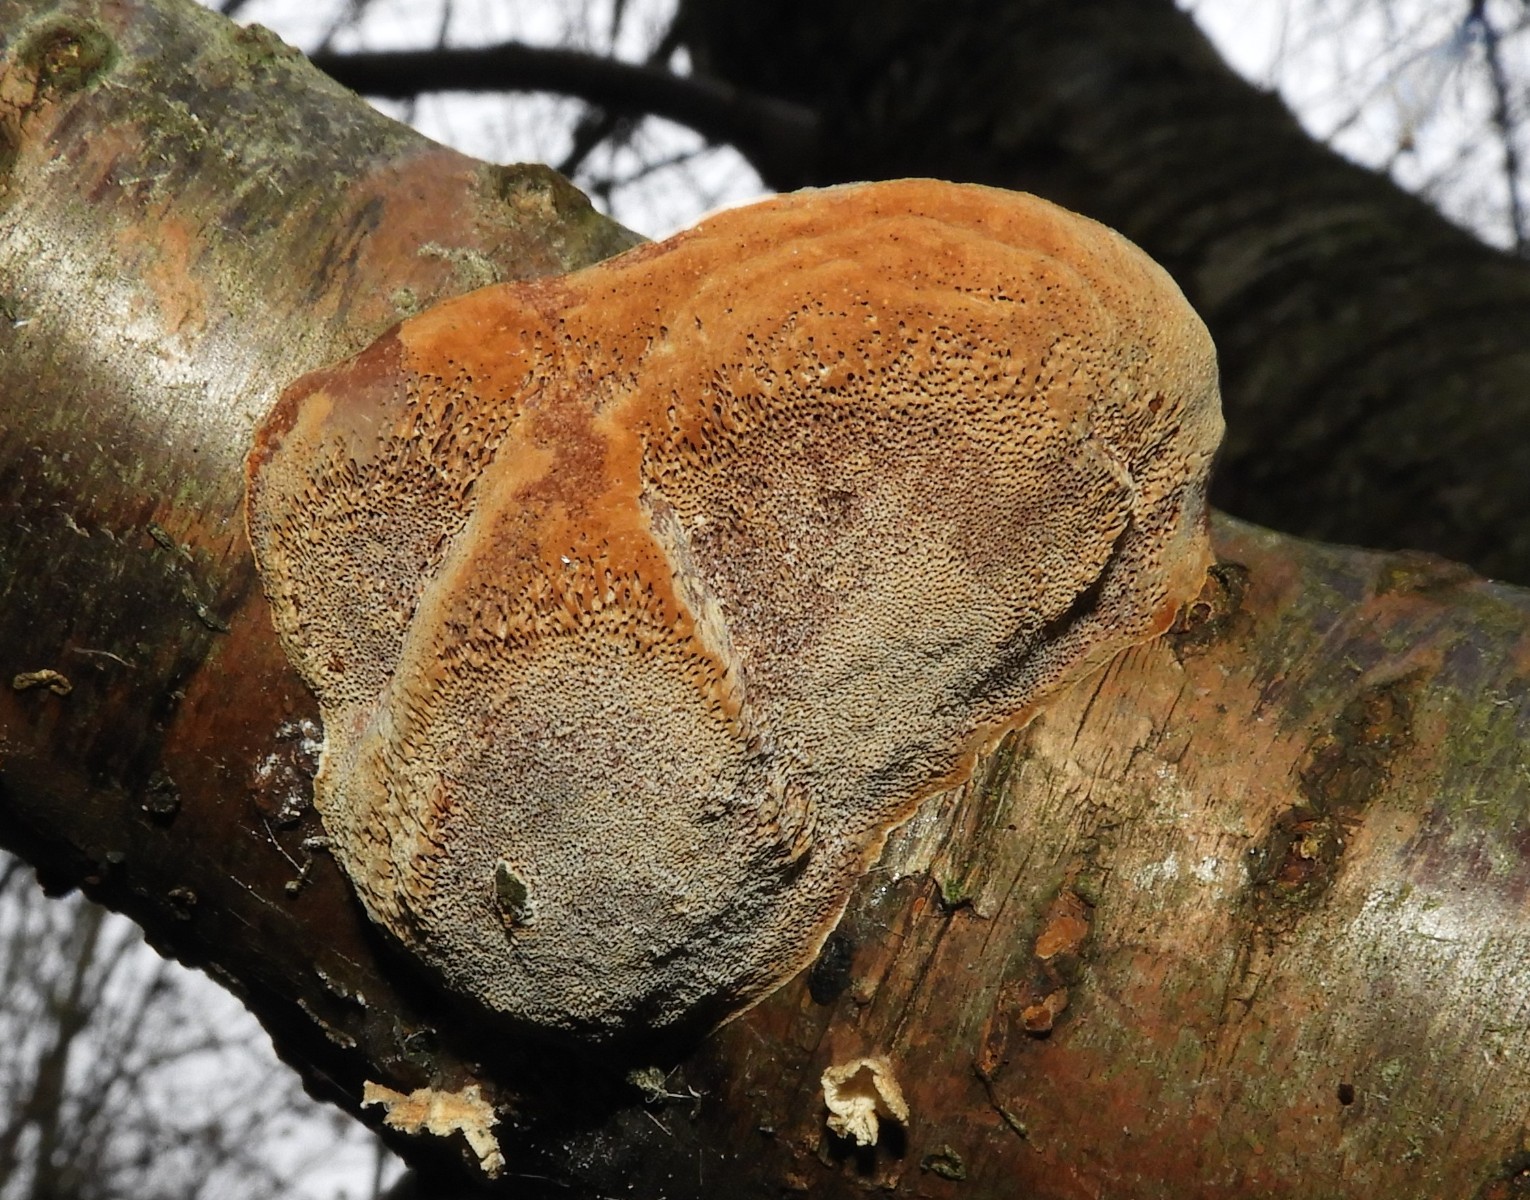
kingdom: Fungi
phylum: Basidiomycota
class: Agaricomycetes
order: Hymenochaetales
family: Hymenochaetaceae
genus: Phellinus
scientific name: Phellinus pomaceus
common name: blomme-ildporesvamp
